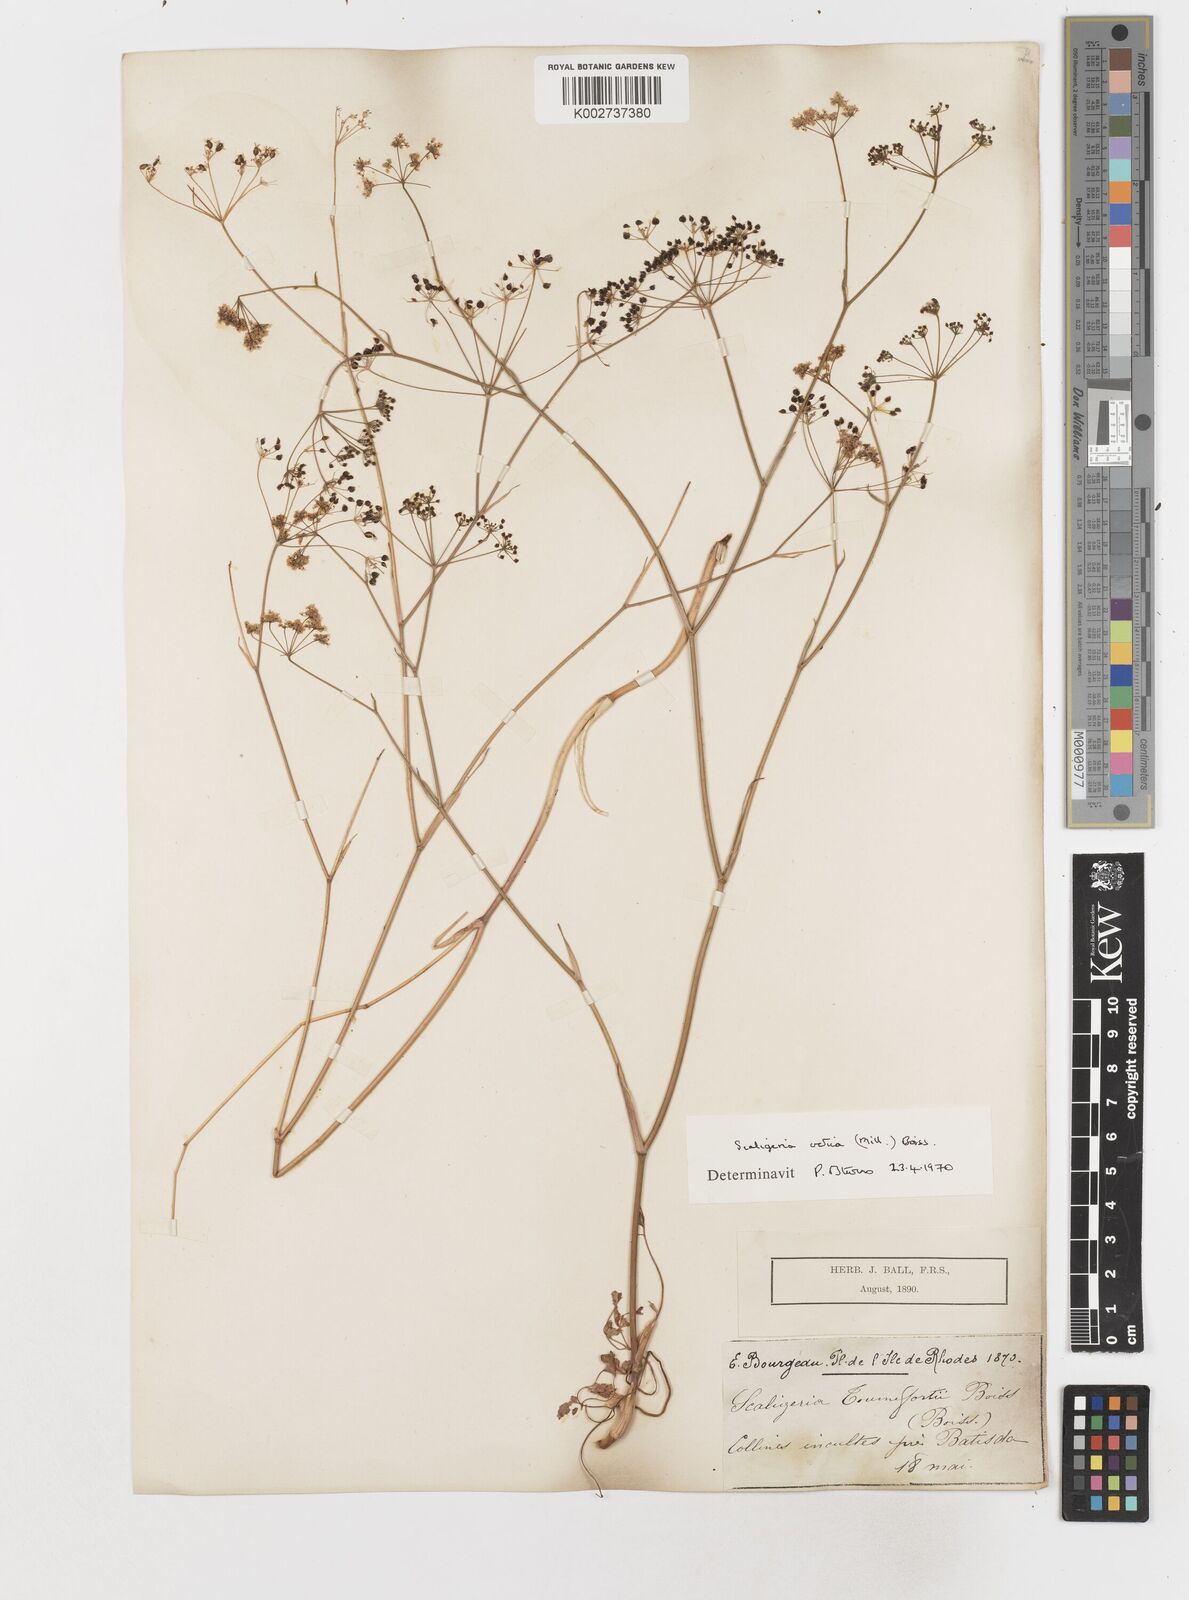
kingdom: Plantae
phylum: Tracheophyta
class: Magnoliopsida
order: Apiales
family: Apiaceae
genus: Scaligeria
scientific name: Scaligeria
